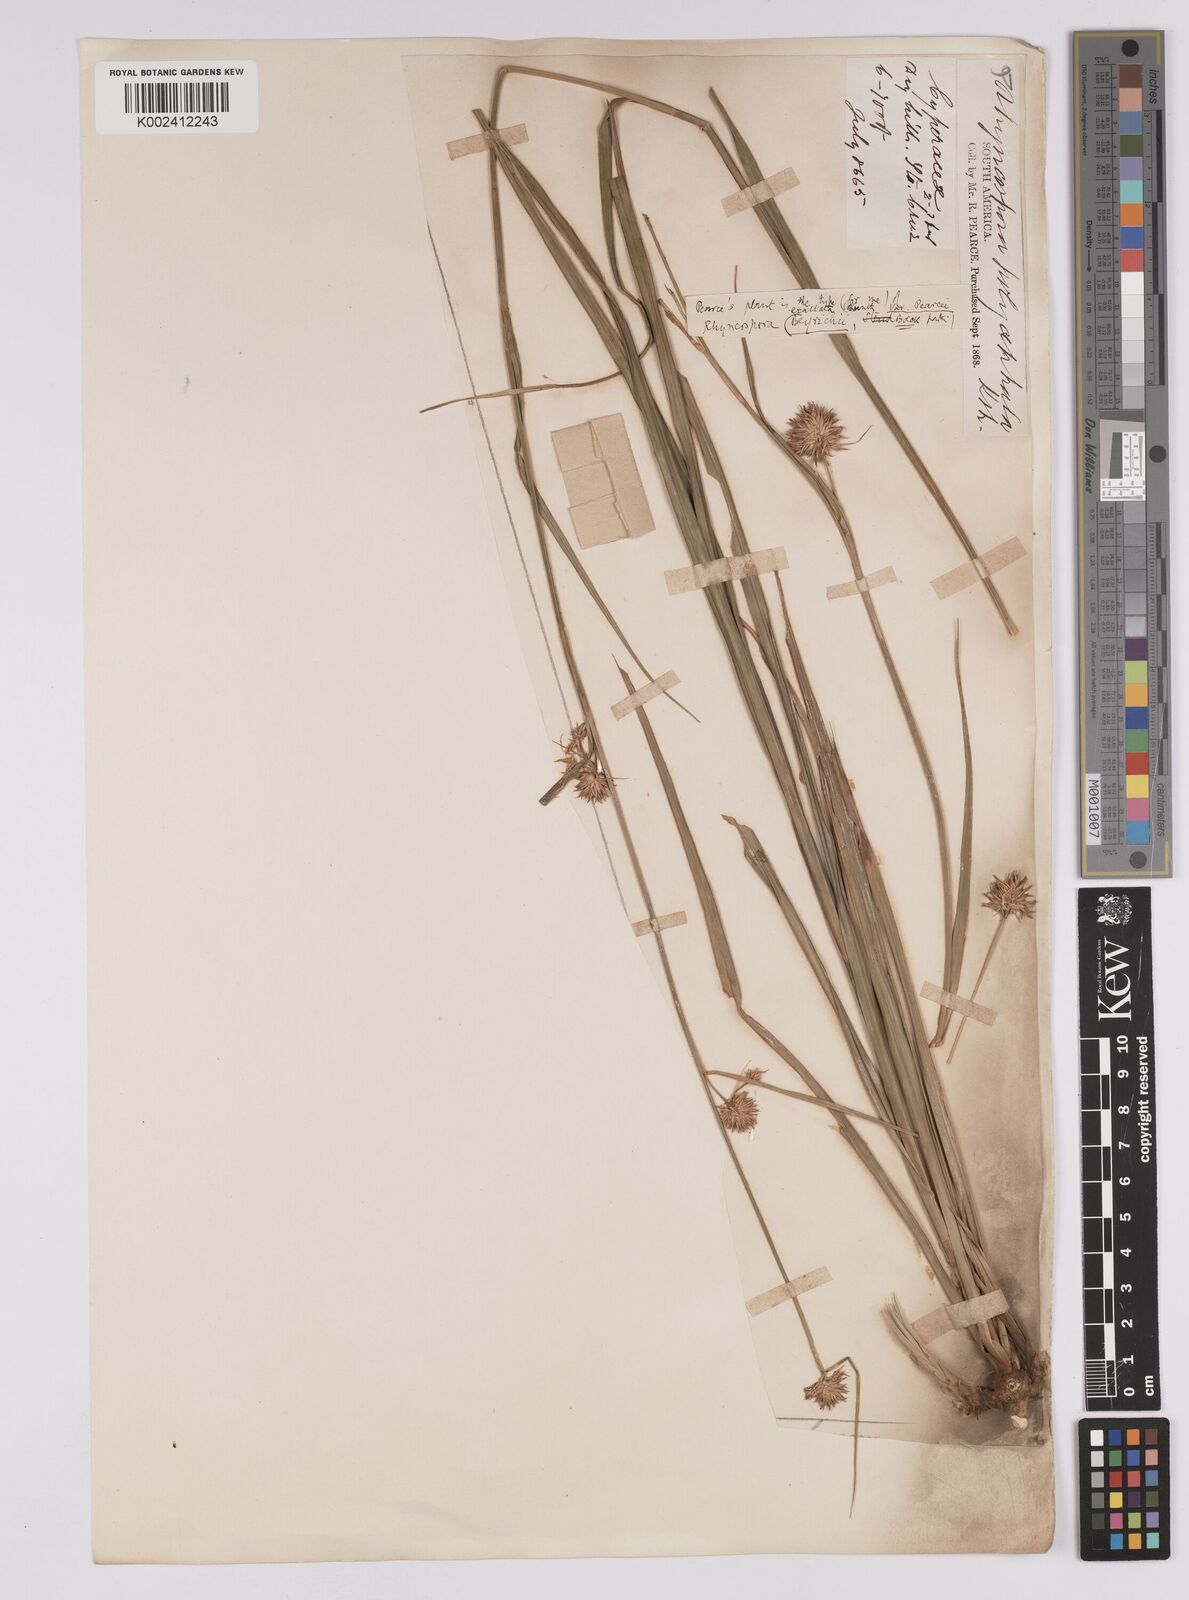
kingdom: Plantae
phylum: Tracheophyta
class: Liliopsida
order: Poales
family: Cyperaceae
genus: Rhynchospora
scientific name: Rhynchospora exaltata
